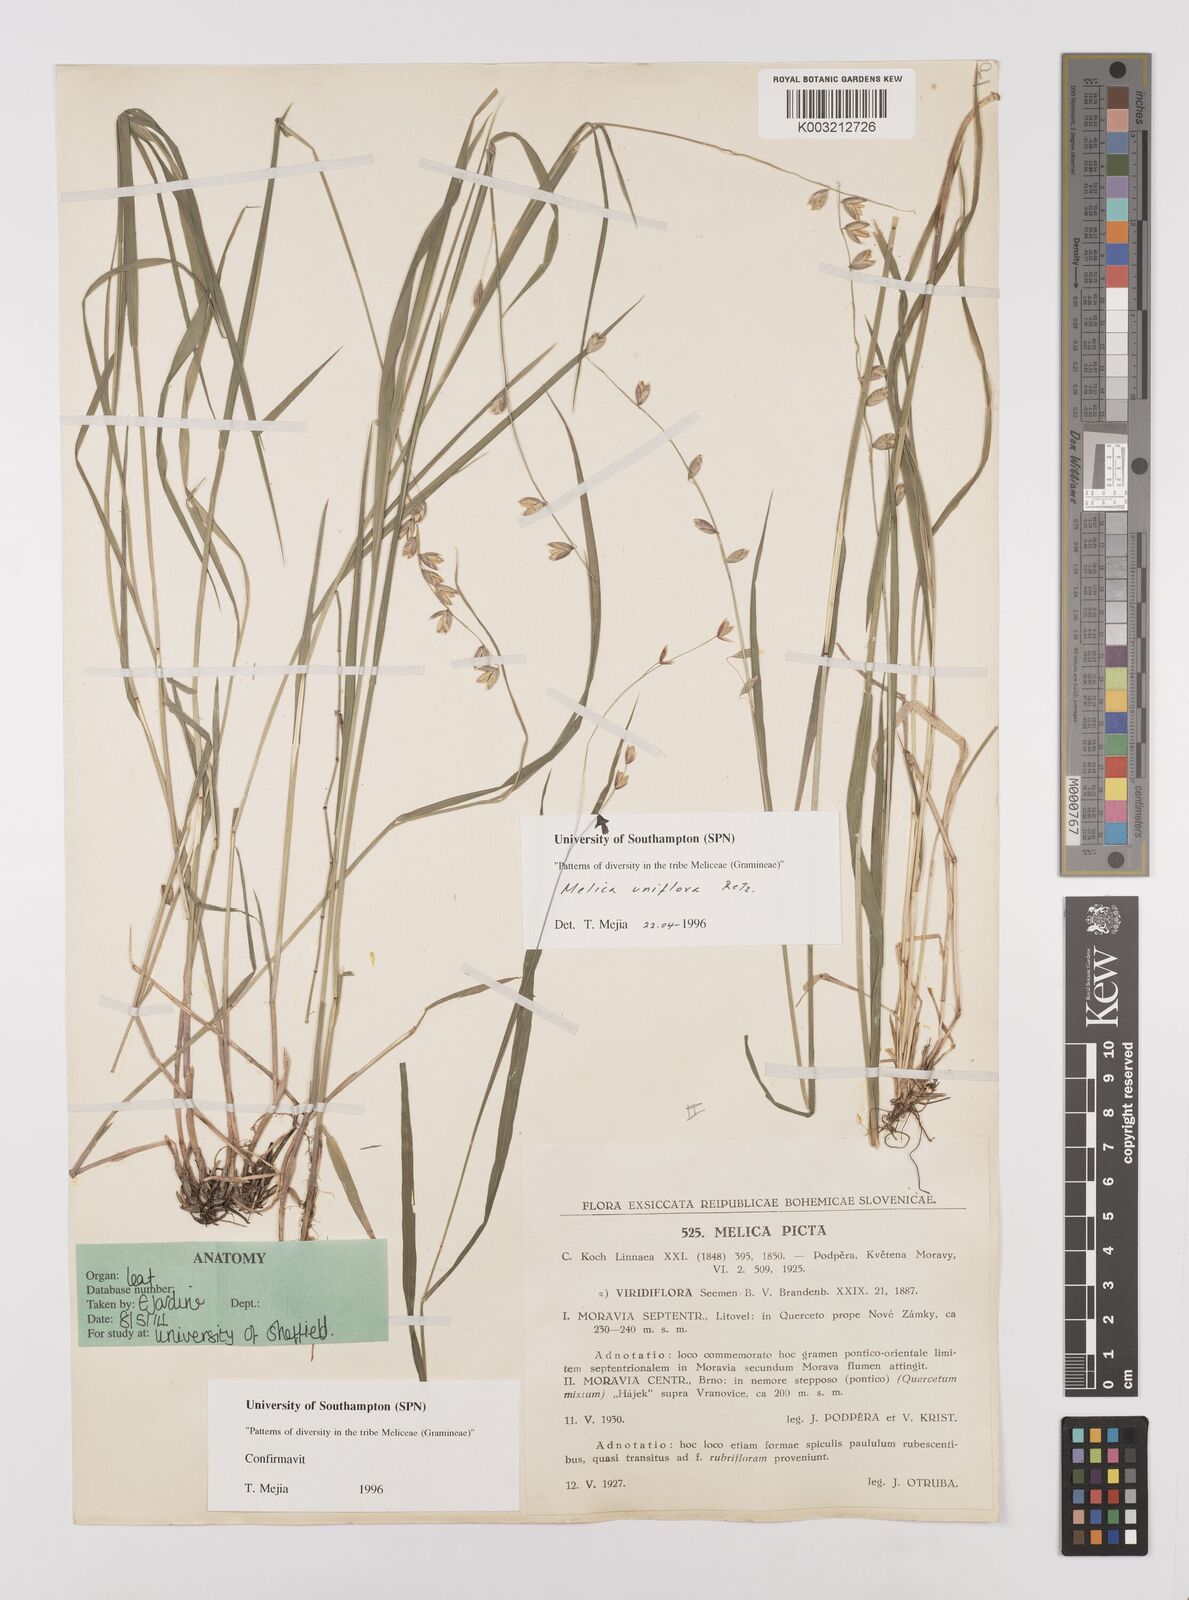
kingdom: Plantae
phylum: Tracheophyta
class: Liliopsida
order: Poales
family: Poaceae
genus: Melica
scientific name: Melica picta
